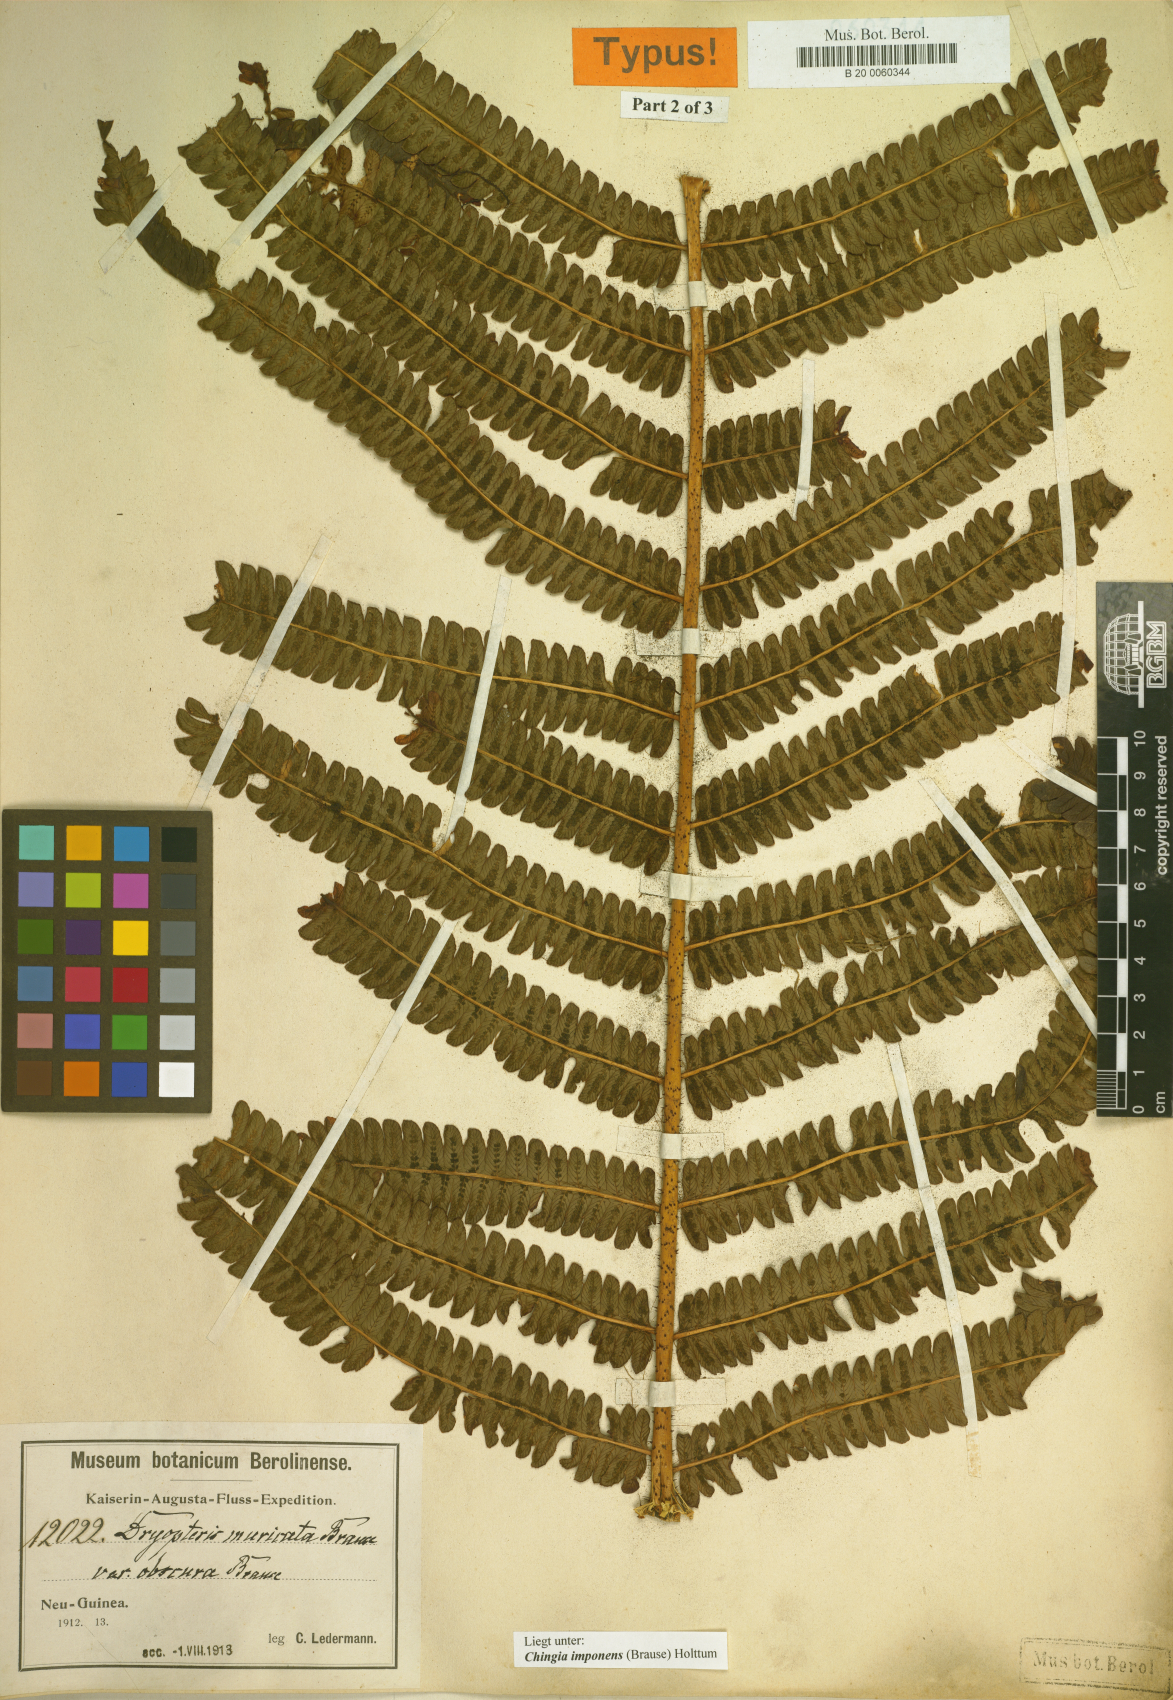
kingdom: Plantae
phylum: Tracheophyta
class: Polypodiopsida
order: Polypodiales
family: Thelypteridaceae
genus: Chingia
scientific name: Chingia imponens
